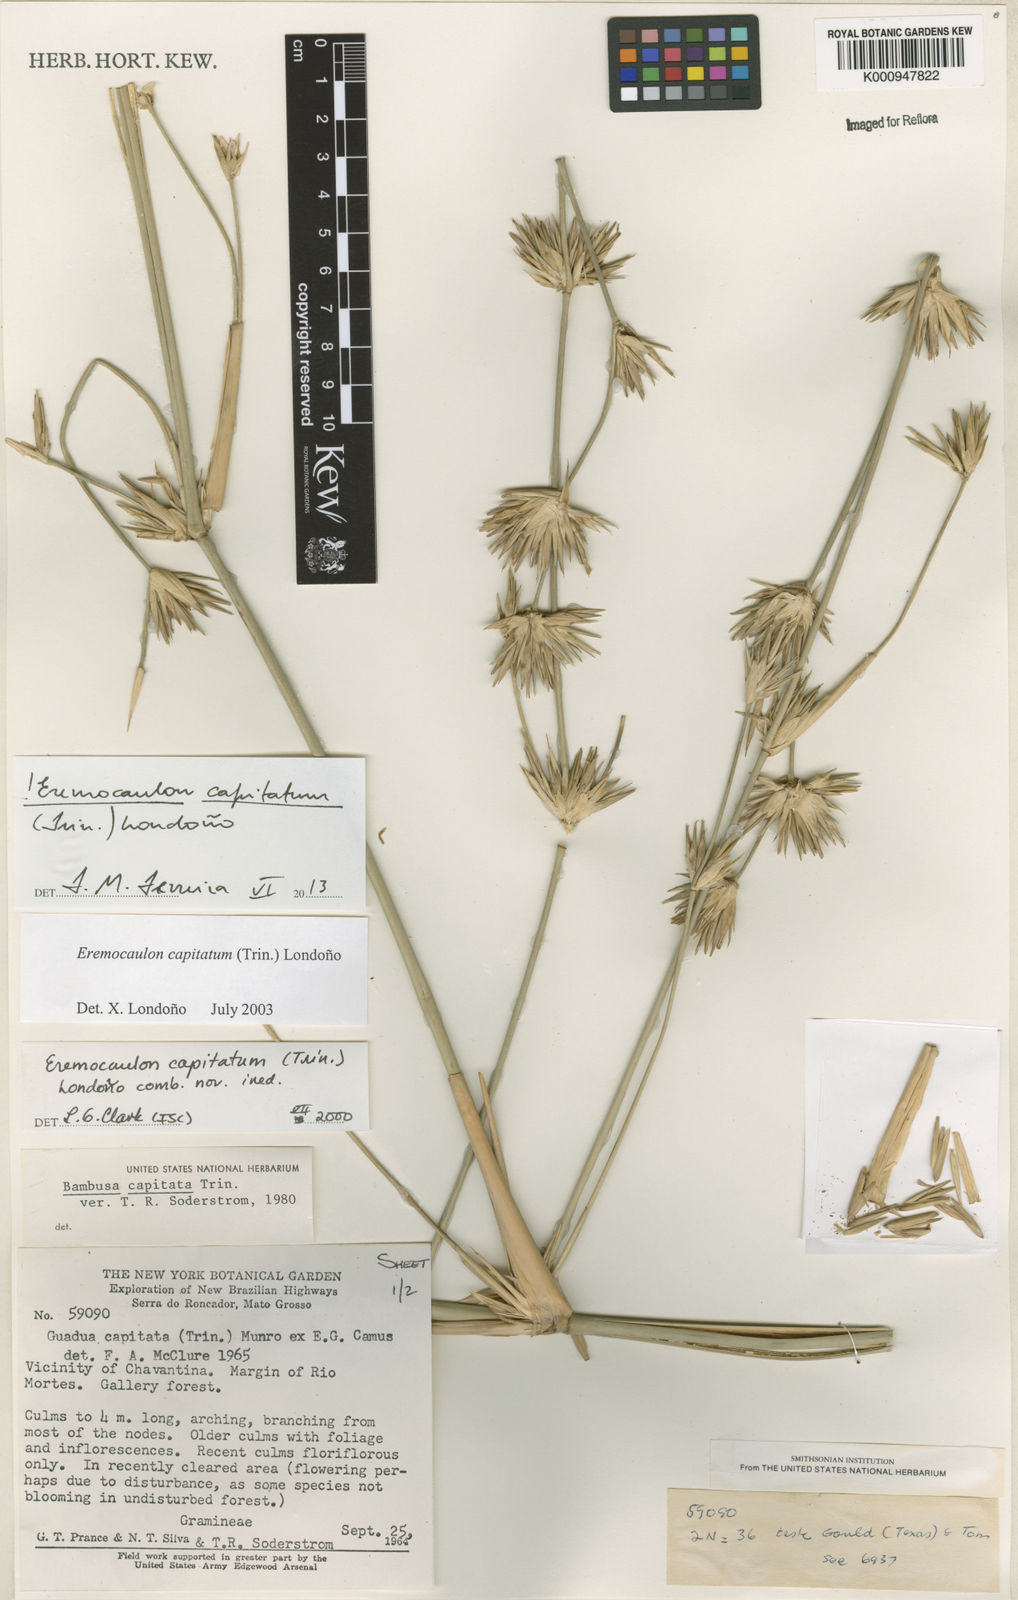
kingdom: Plantae
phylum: Tracheophyta
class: Liliopsida
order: Poales
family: Poaceae
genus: Eremocaulon
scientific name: Eremocaulon
